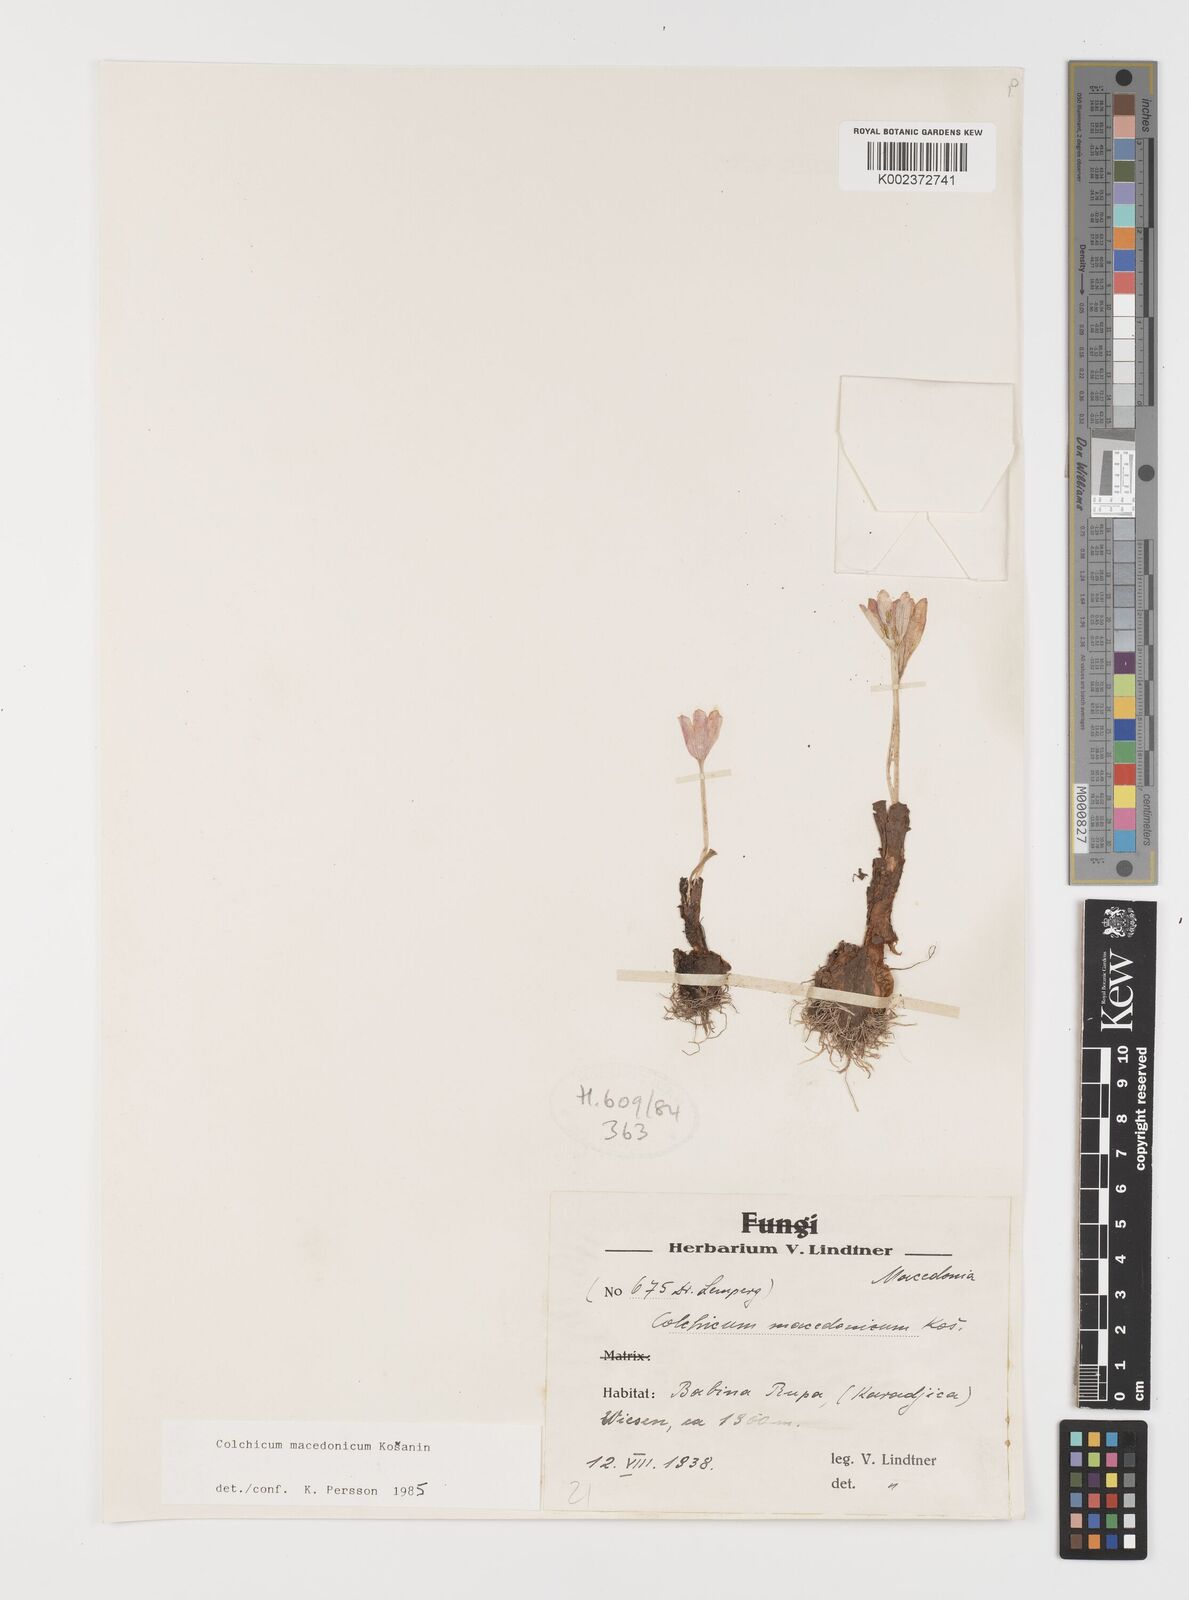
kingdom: Plantae
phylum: Tracheophyta
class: Liliopsida
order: Liliales
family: Colchicaceae
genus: Colchicum
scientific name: Colchicum macedonicum
